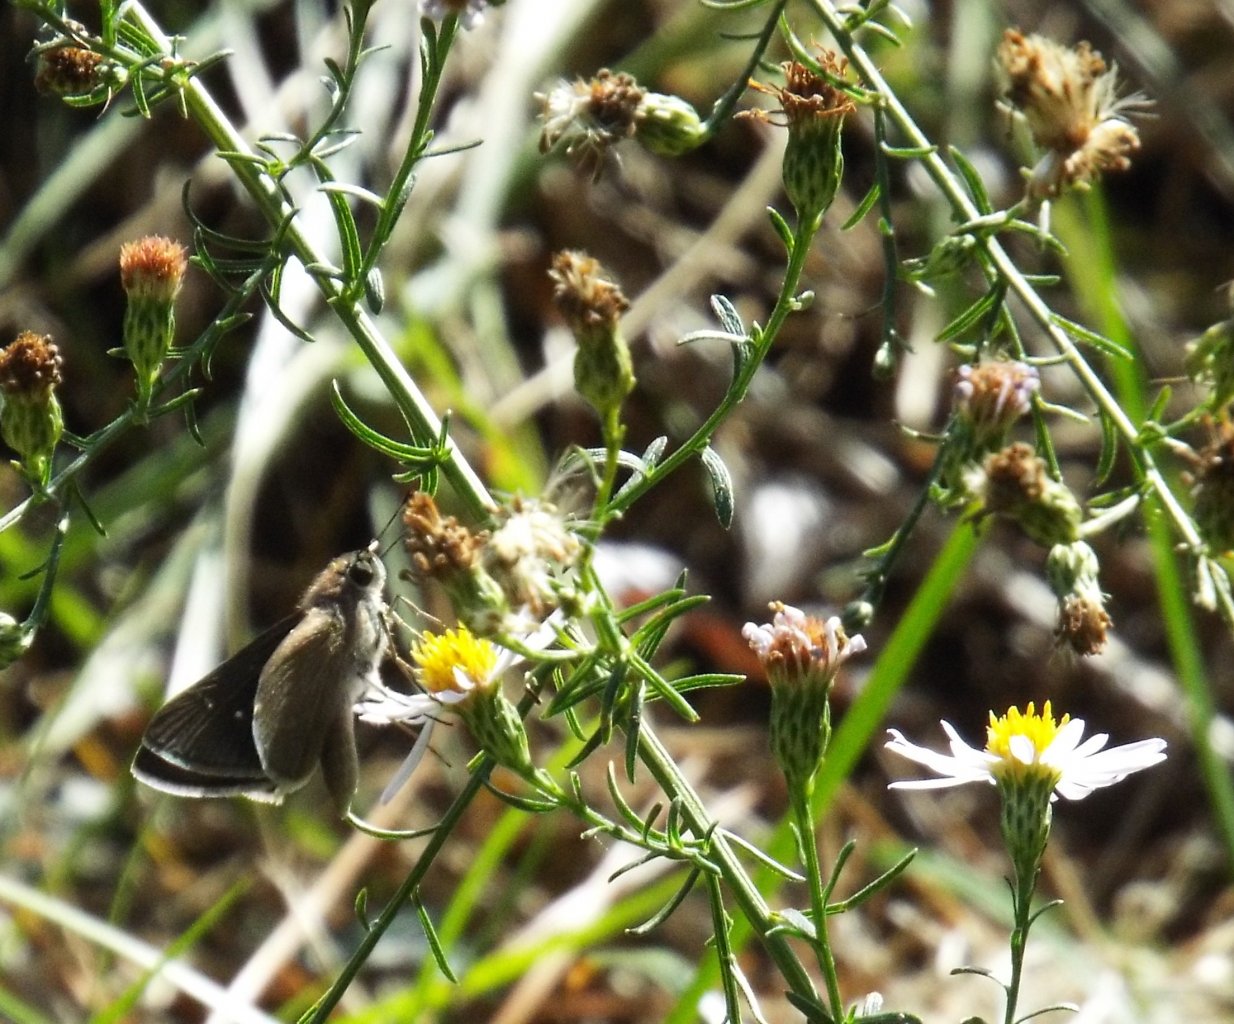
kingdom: Animalia
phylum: Arthropoda
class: Insecta
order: Lepidoptera
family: Hesperiidae
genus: Lerodea
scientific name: Lerodea eufala
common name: Eufala Skipper
